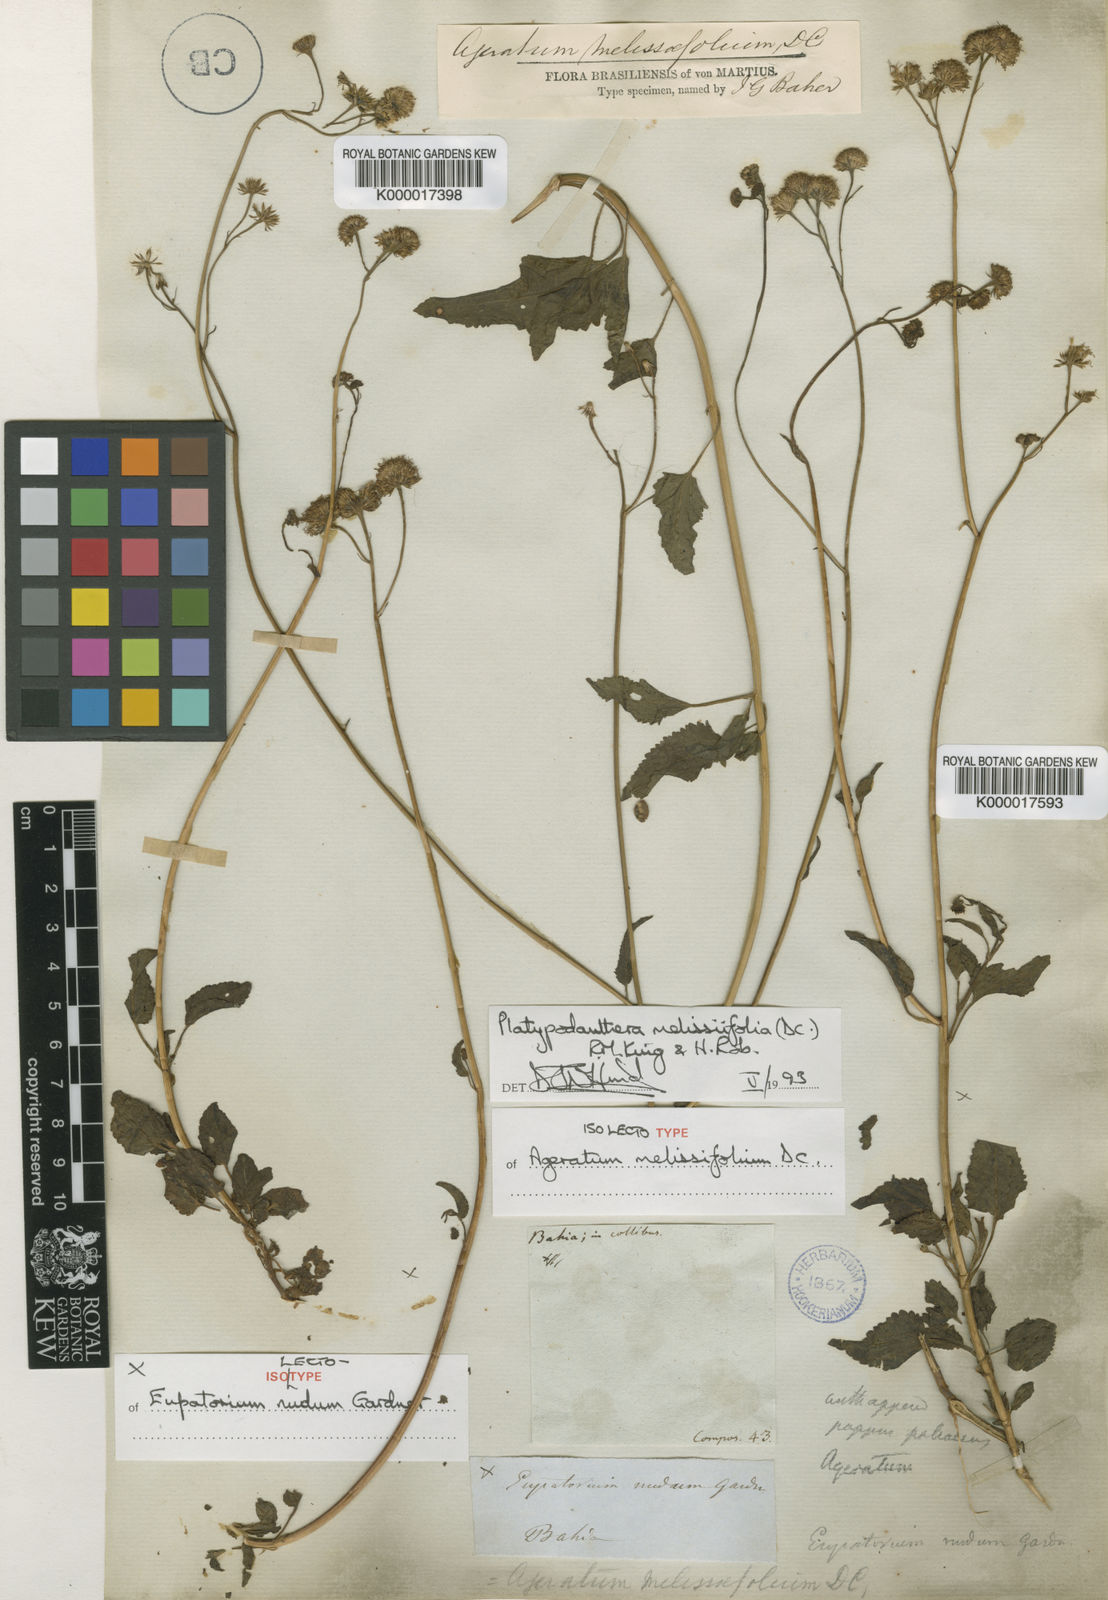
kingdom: Plantae
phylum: Tracheophyta
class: Magnoliopsida
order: Asterales
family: Asteraceae
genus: Platypodanthera
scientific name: Platypodanthera melissifolia
